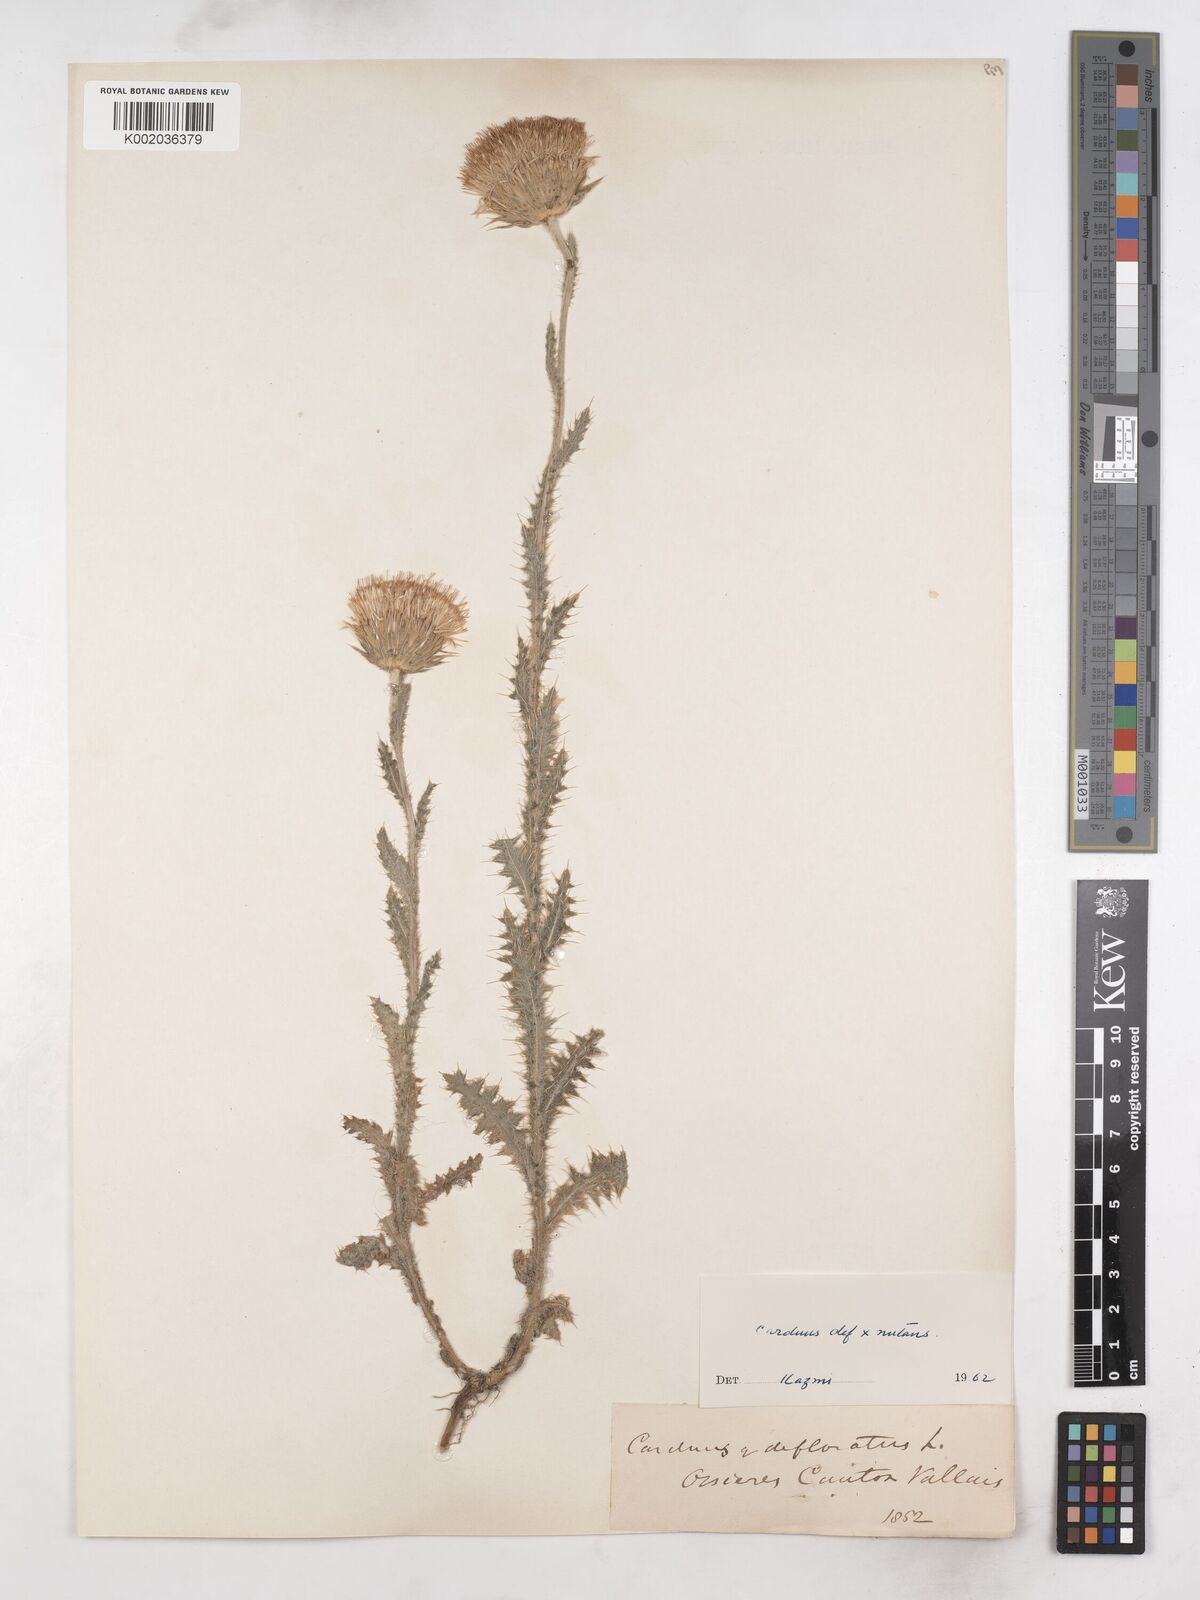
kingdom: Plantae
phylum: Tracheophyta
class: Magnoliopsida
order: Asterales
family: Asteraceae
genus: Carduus
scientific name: Carduus defloratus
